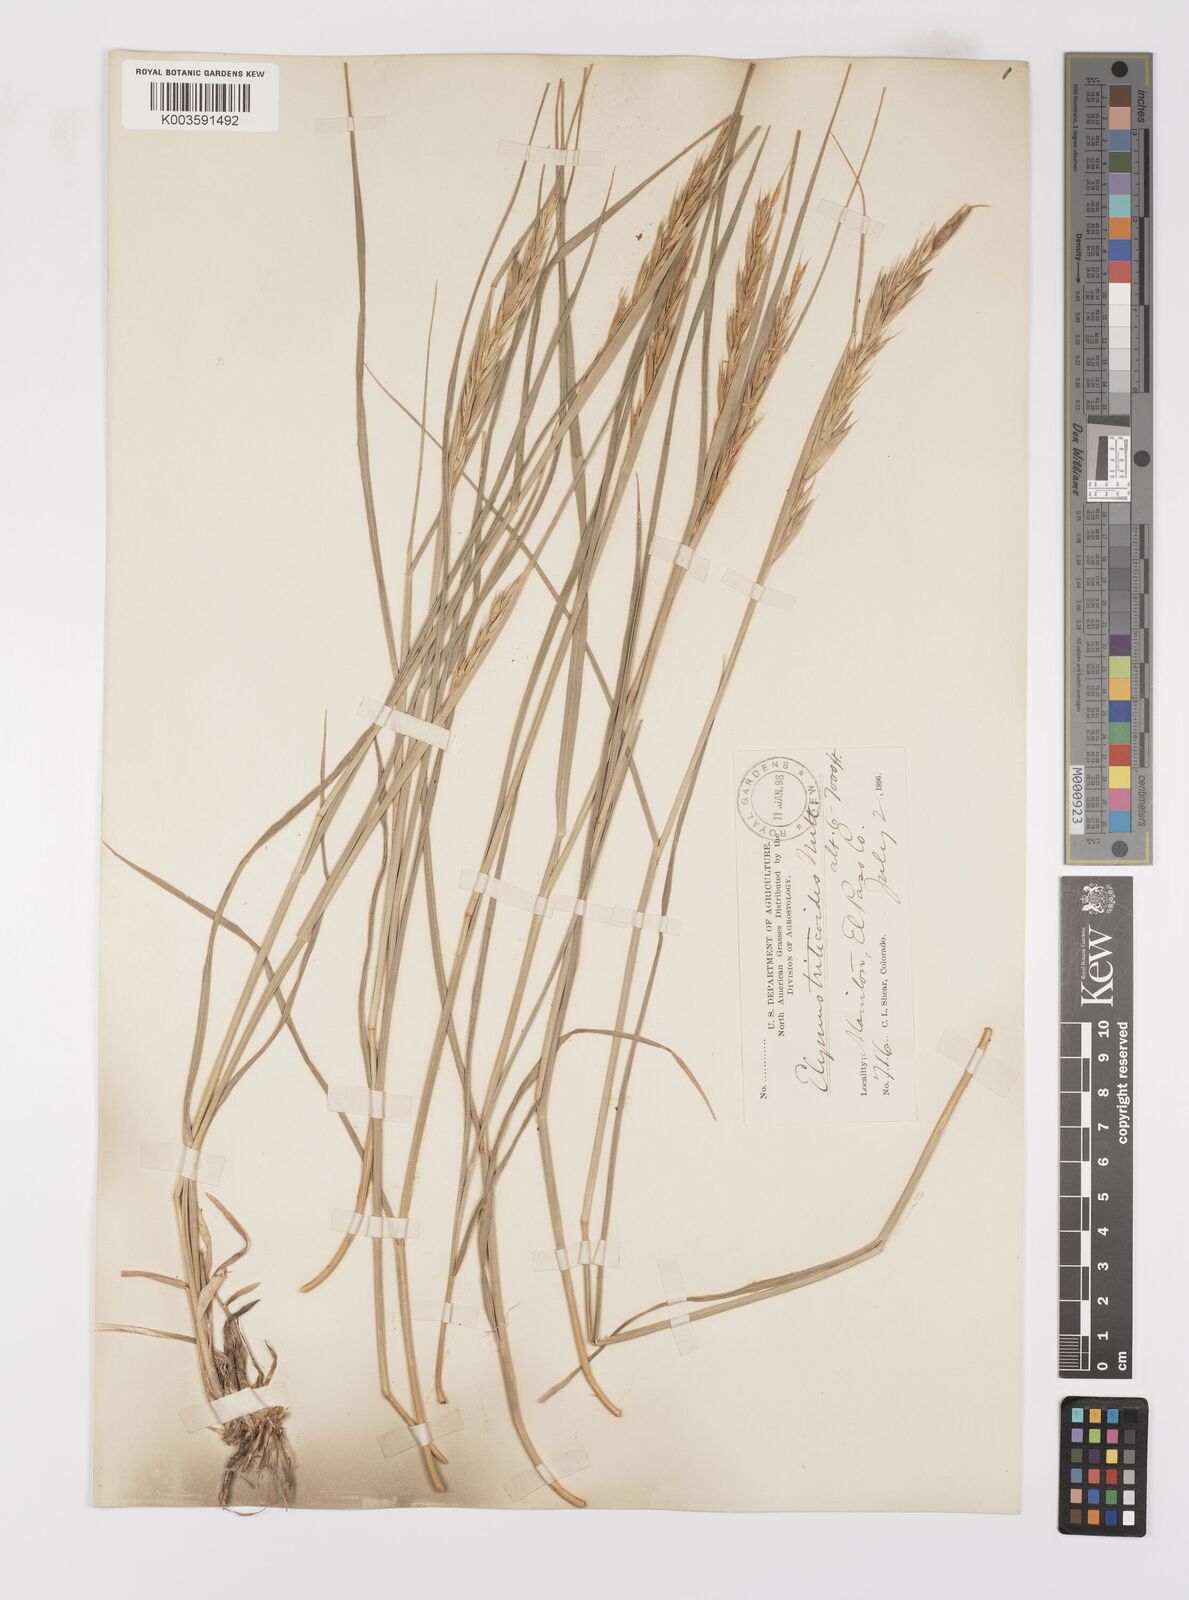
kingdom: Plantae
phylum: Tracheophyta
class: Liliopsida
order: Poales
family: Poaceae
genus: Leymus
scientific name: Leymus triticoides
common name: Beardless wild rye
